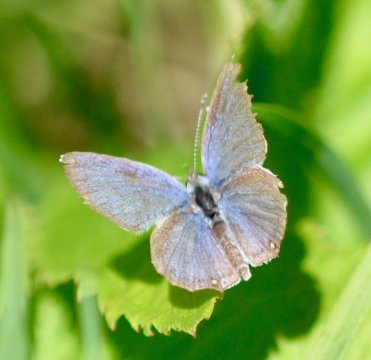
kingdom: Animalia
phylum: Arthropoda
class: Insecta
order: Lepidoptera
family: Lycaenidae
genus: Elkalyce
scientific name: Elkalyce comyntas
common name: Eastern Tailed-Blue
